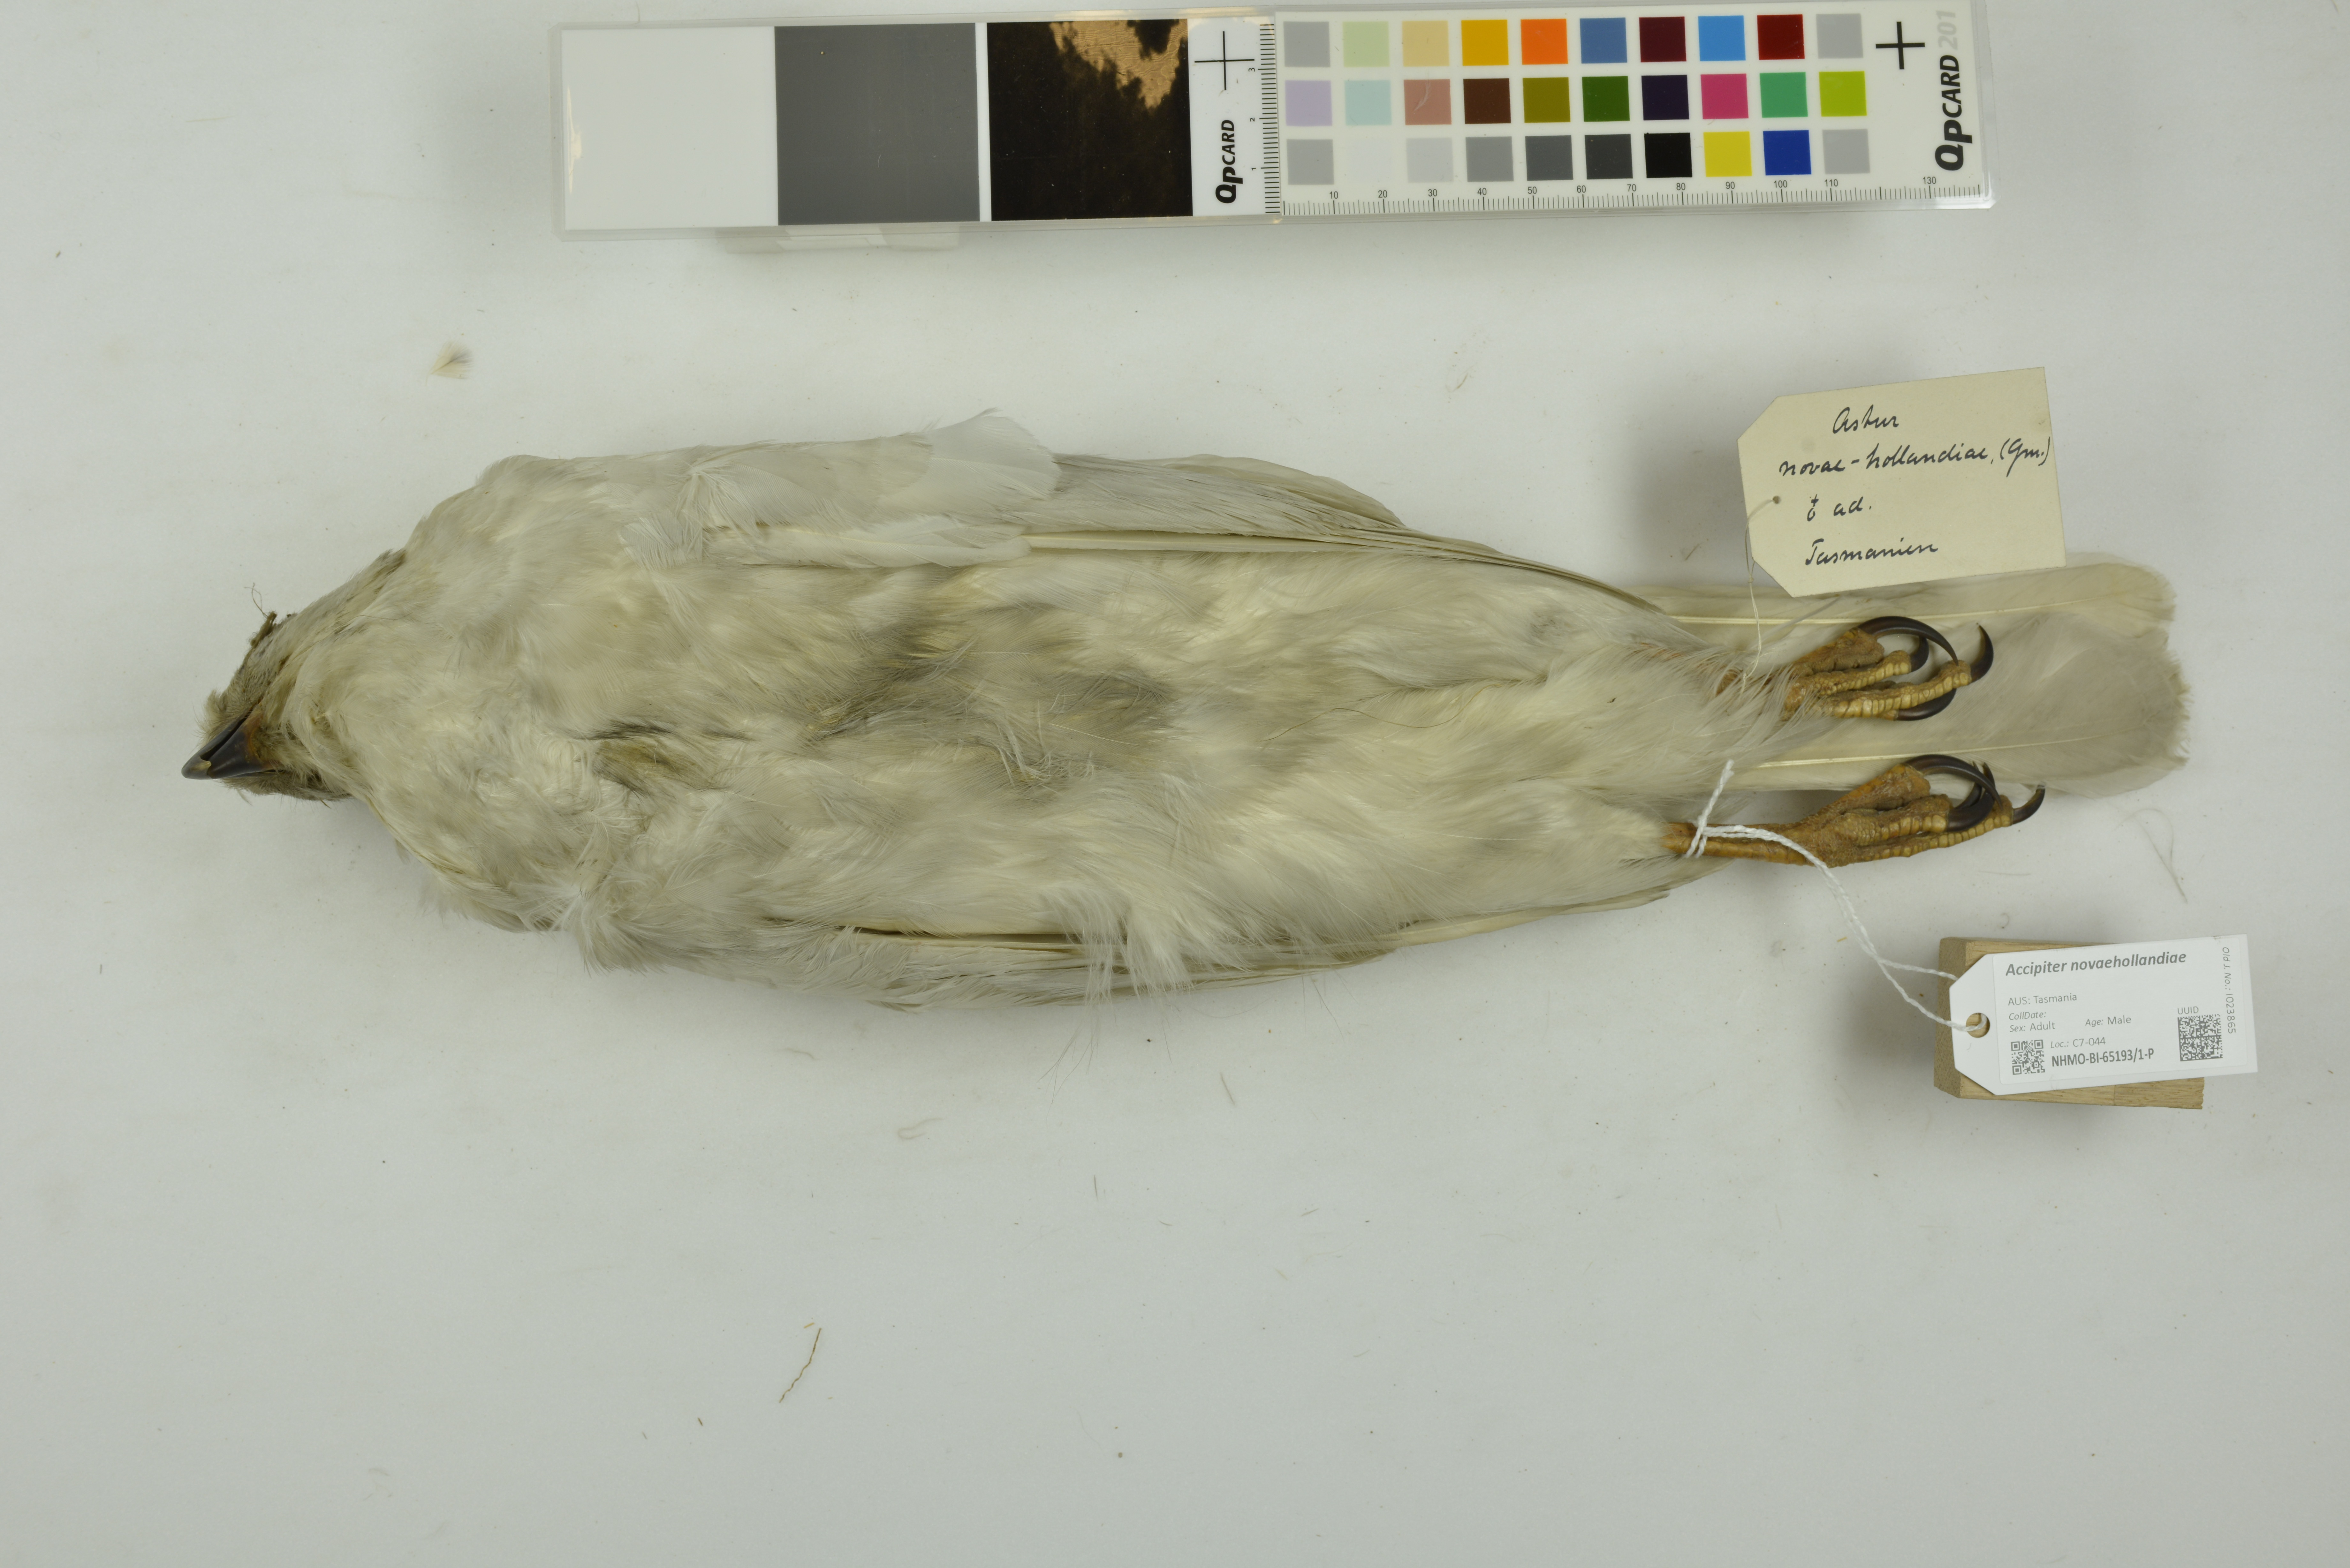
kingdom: Animalia
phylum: Chordata
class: Aves
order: Accipitriformes
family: Accipitridae
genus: Accipiter
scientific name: Accipiter novaehollandiae
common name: Grey goshawk
